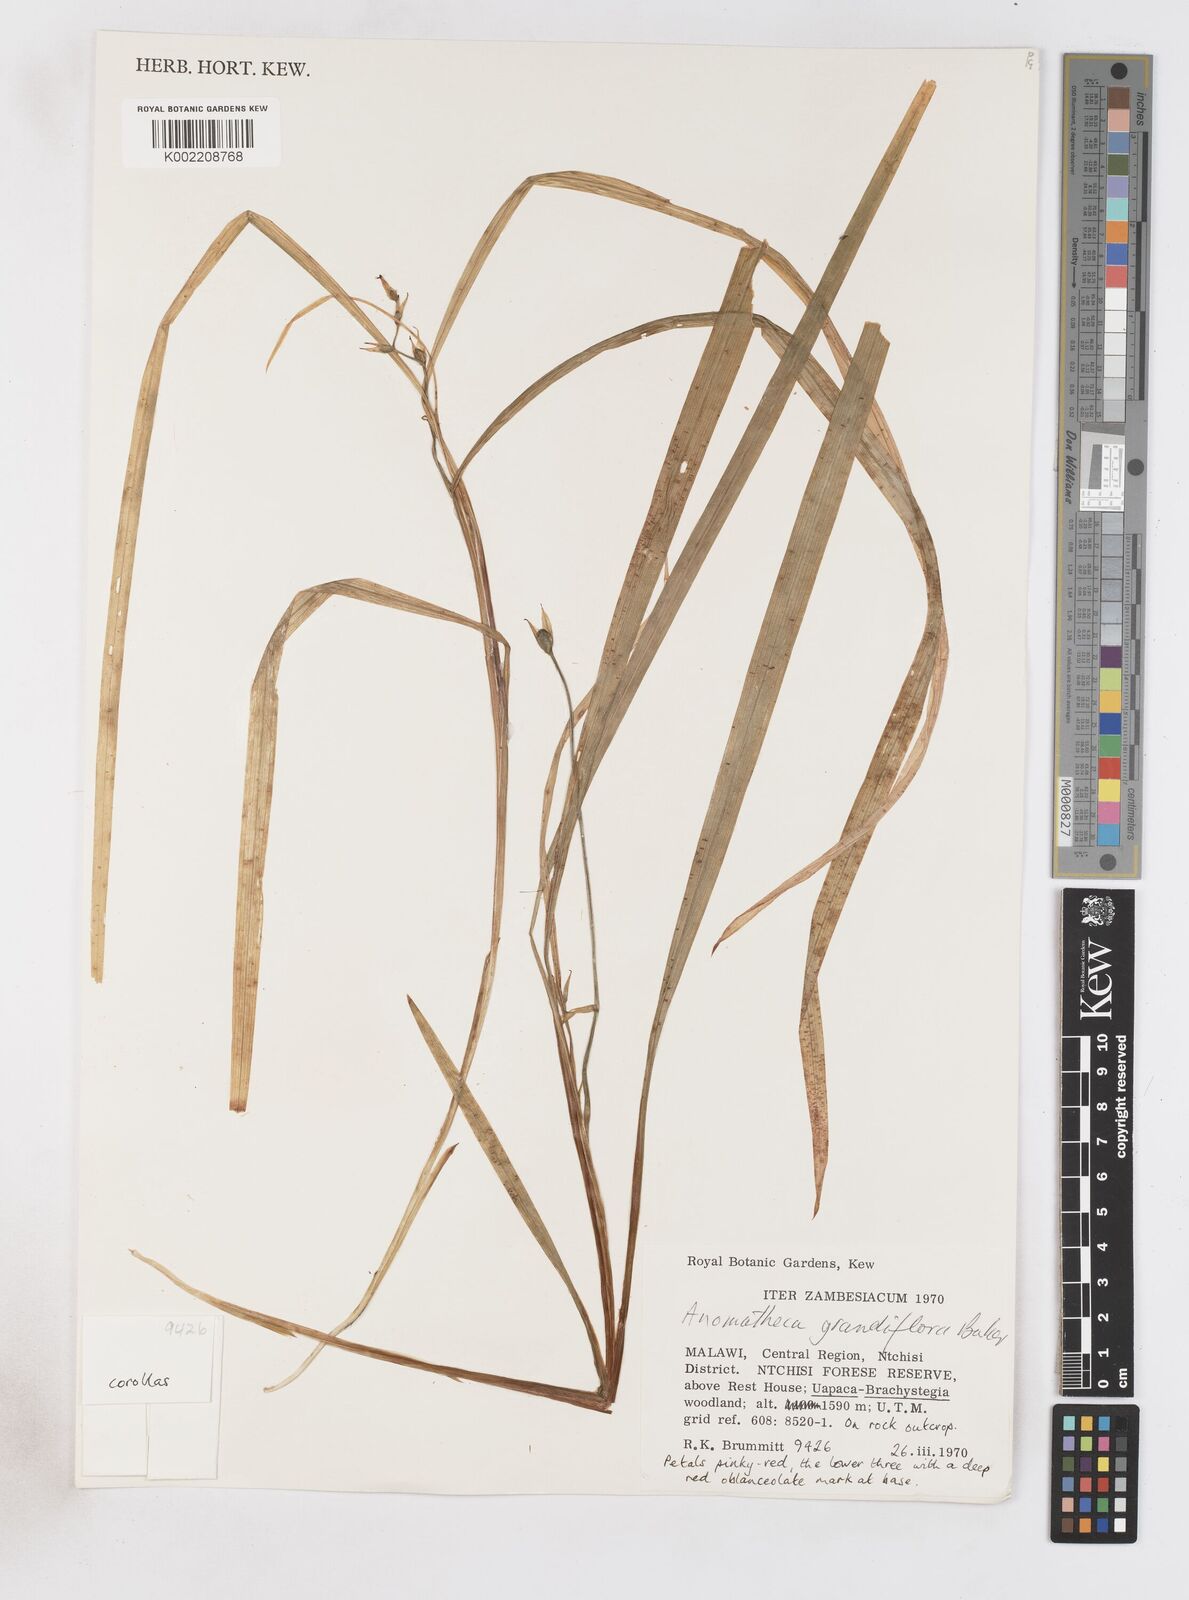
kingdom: Plantae
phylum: Tracheophyta
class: Liliopsida
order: Asparagales
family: Iridaceae
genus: Freesia
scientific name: Freesia grandiflora
